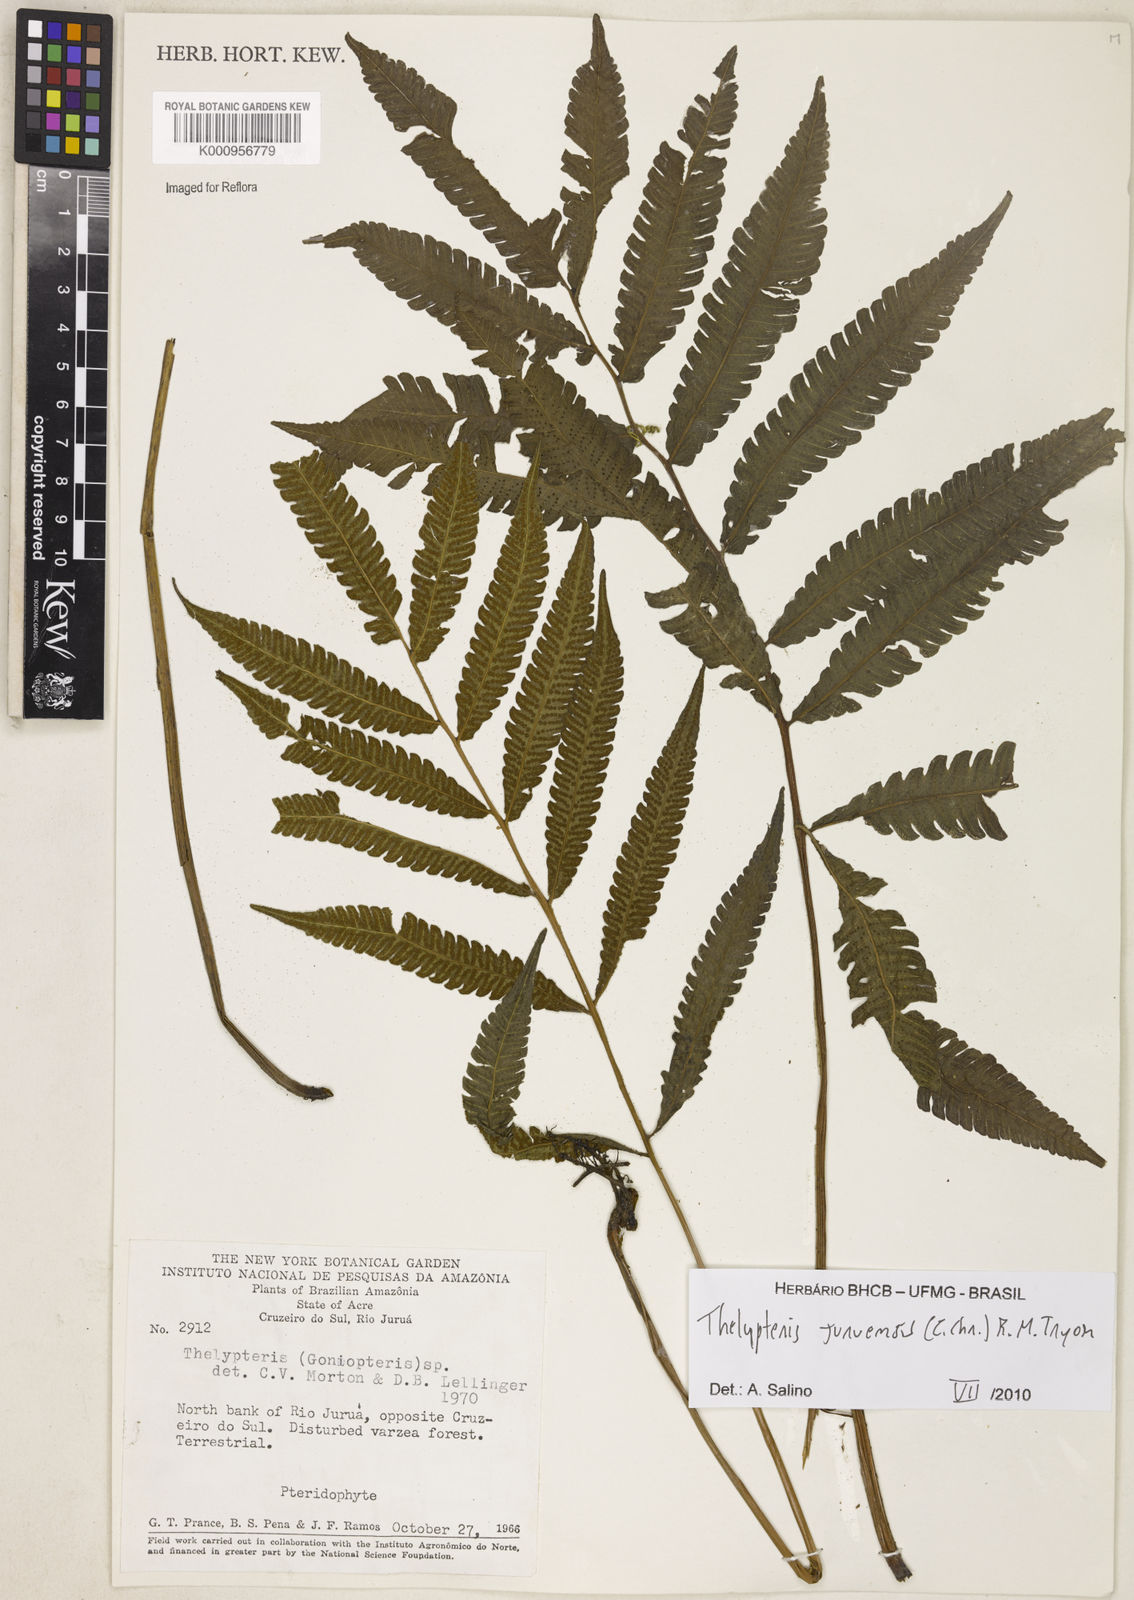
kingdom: Plantae
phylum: Tracheophyta
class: Polypodiopsida
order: Polypodiales
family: Thelypteridaceae
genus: Goniopteris
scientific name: Goniopteris juruensis
